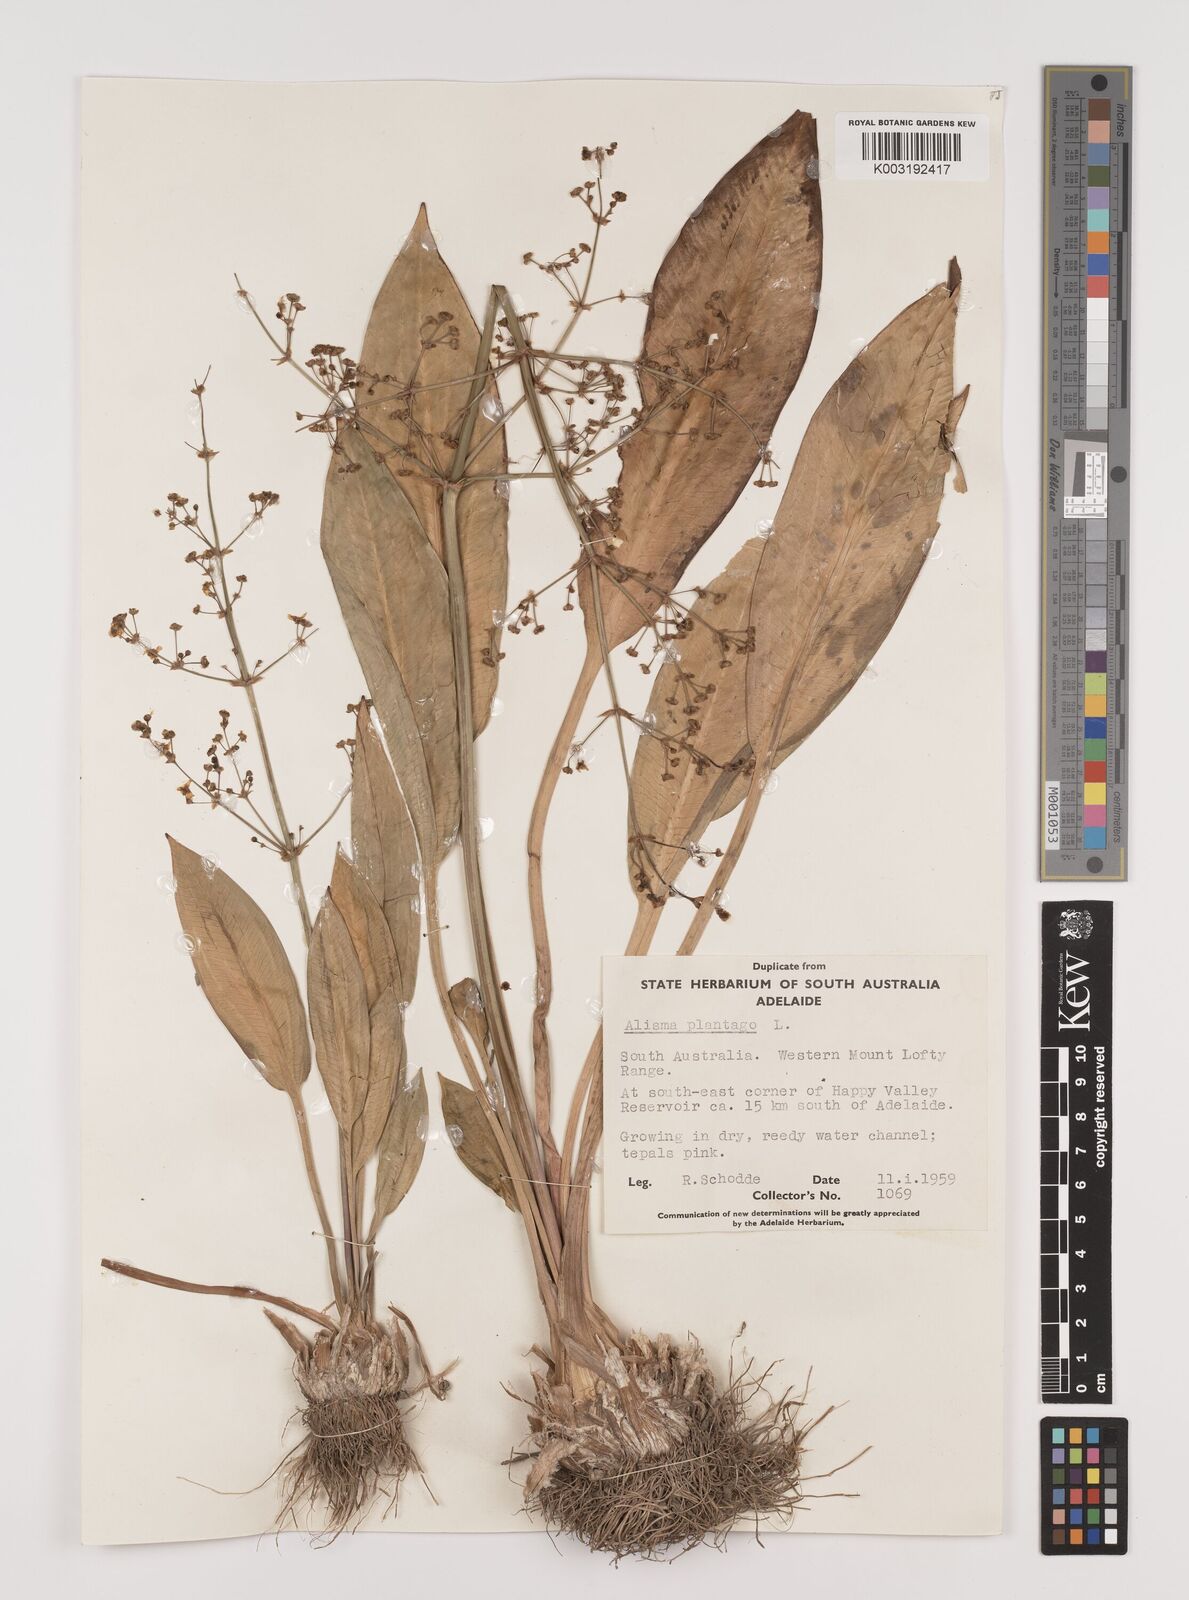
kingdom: Plantae
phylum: Tracheophyta
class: Liliopsida
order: Alismatales
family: Alismataceae
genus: Alisma
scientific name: Alisma plantago-aquatica
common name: Water-plantain
